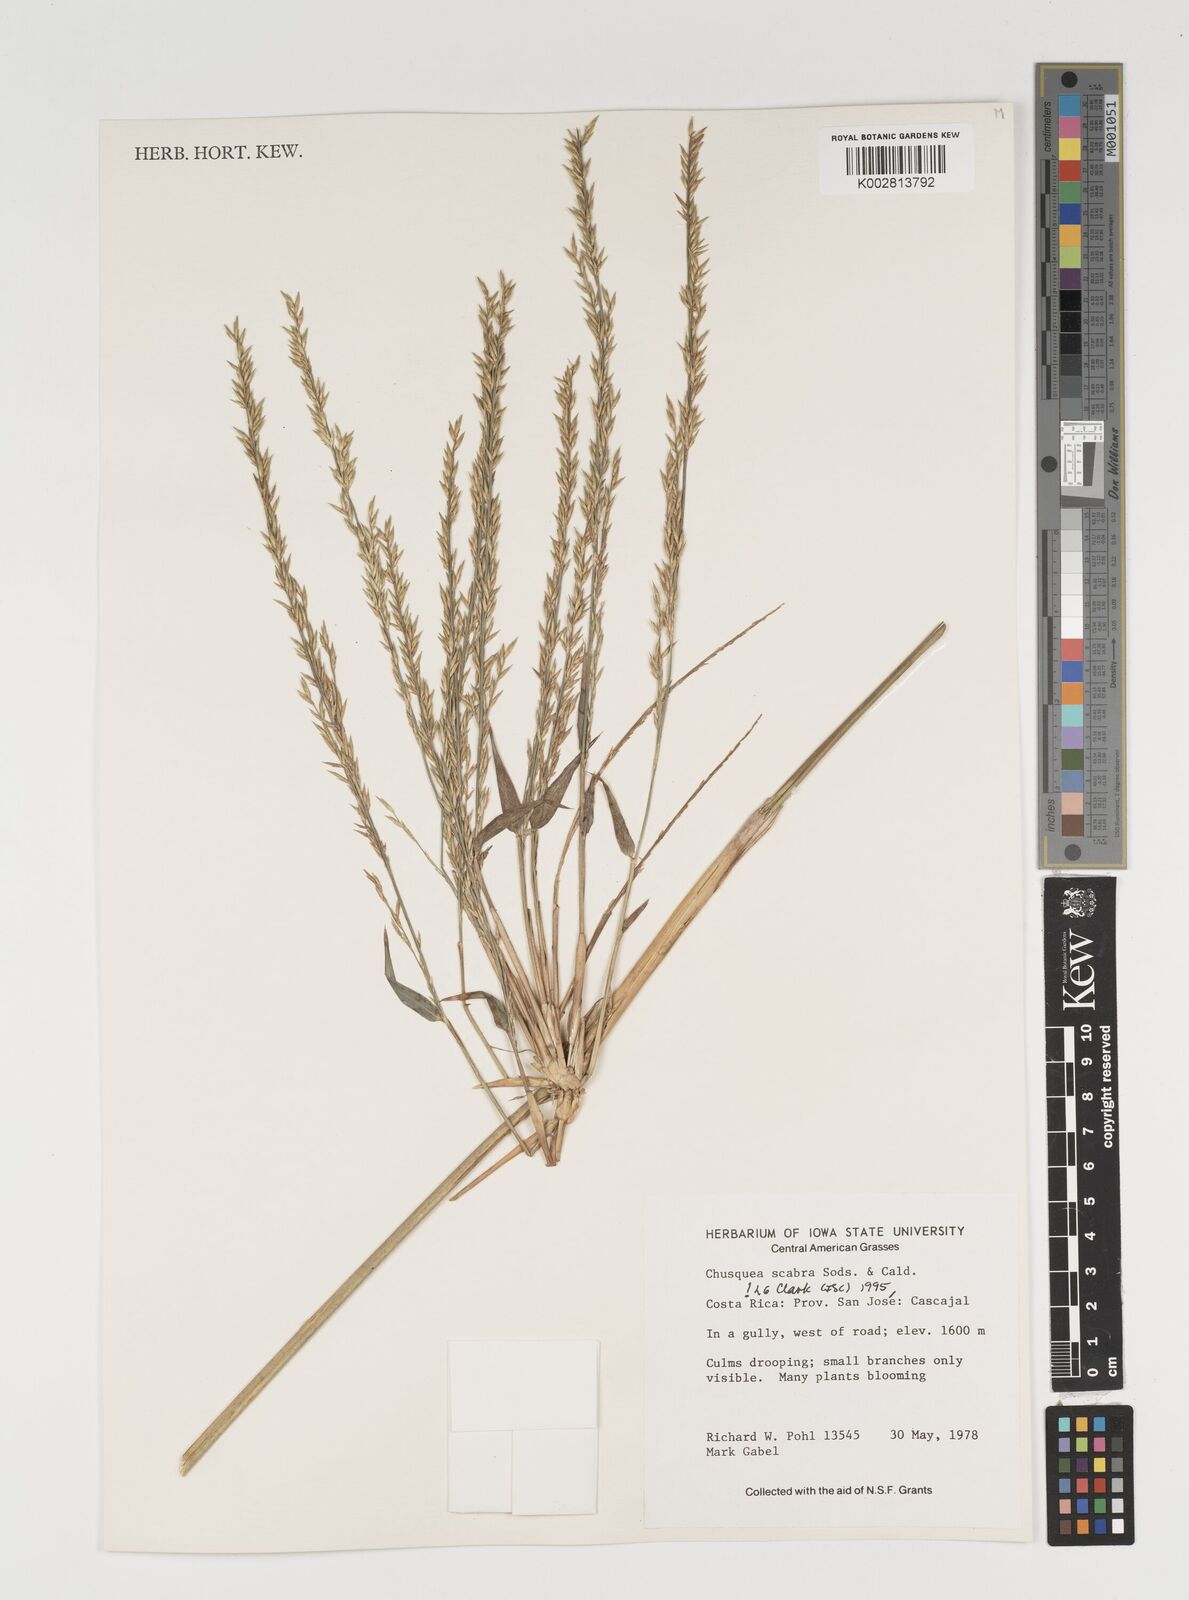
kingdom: Plantae
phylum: Tracheophyta
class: Liliopsida
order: Poales
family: Poaceae
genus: Chusquea
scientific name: Chusquea scabra
